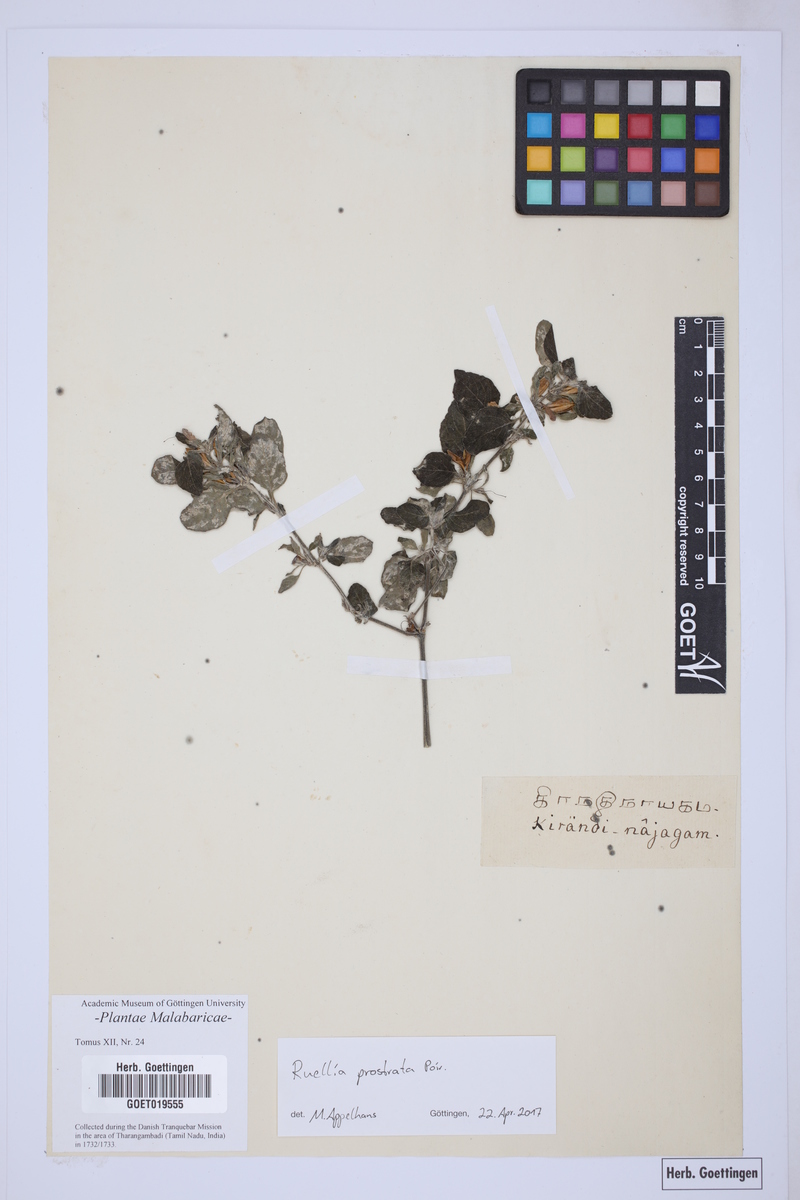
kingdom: Plantae
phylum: Tracheophyta
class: Magnoliopsida
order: Lamiales
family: Acanthaceae
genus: Ruellia
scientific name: Ruellia prostrata
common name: Prostrate wild petunia
